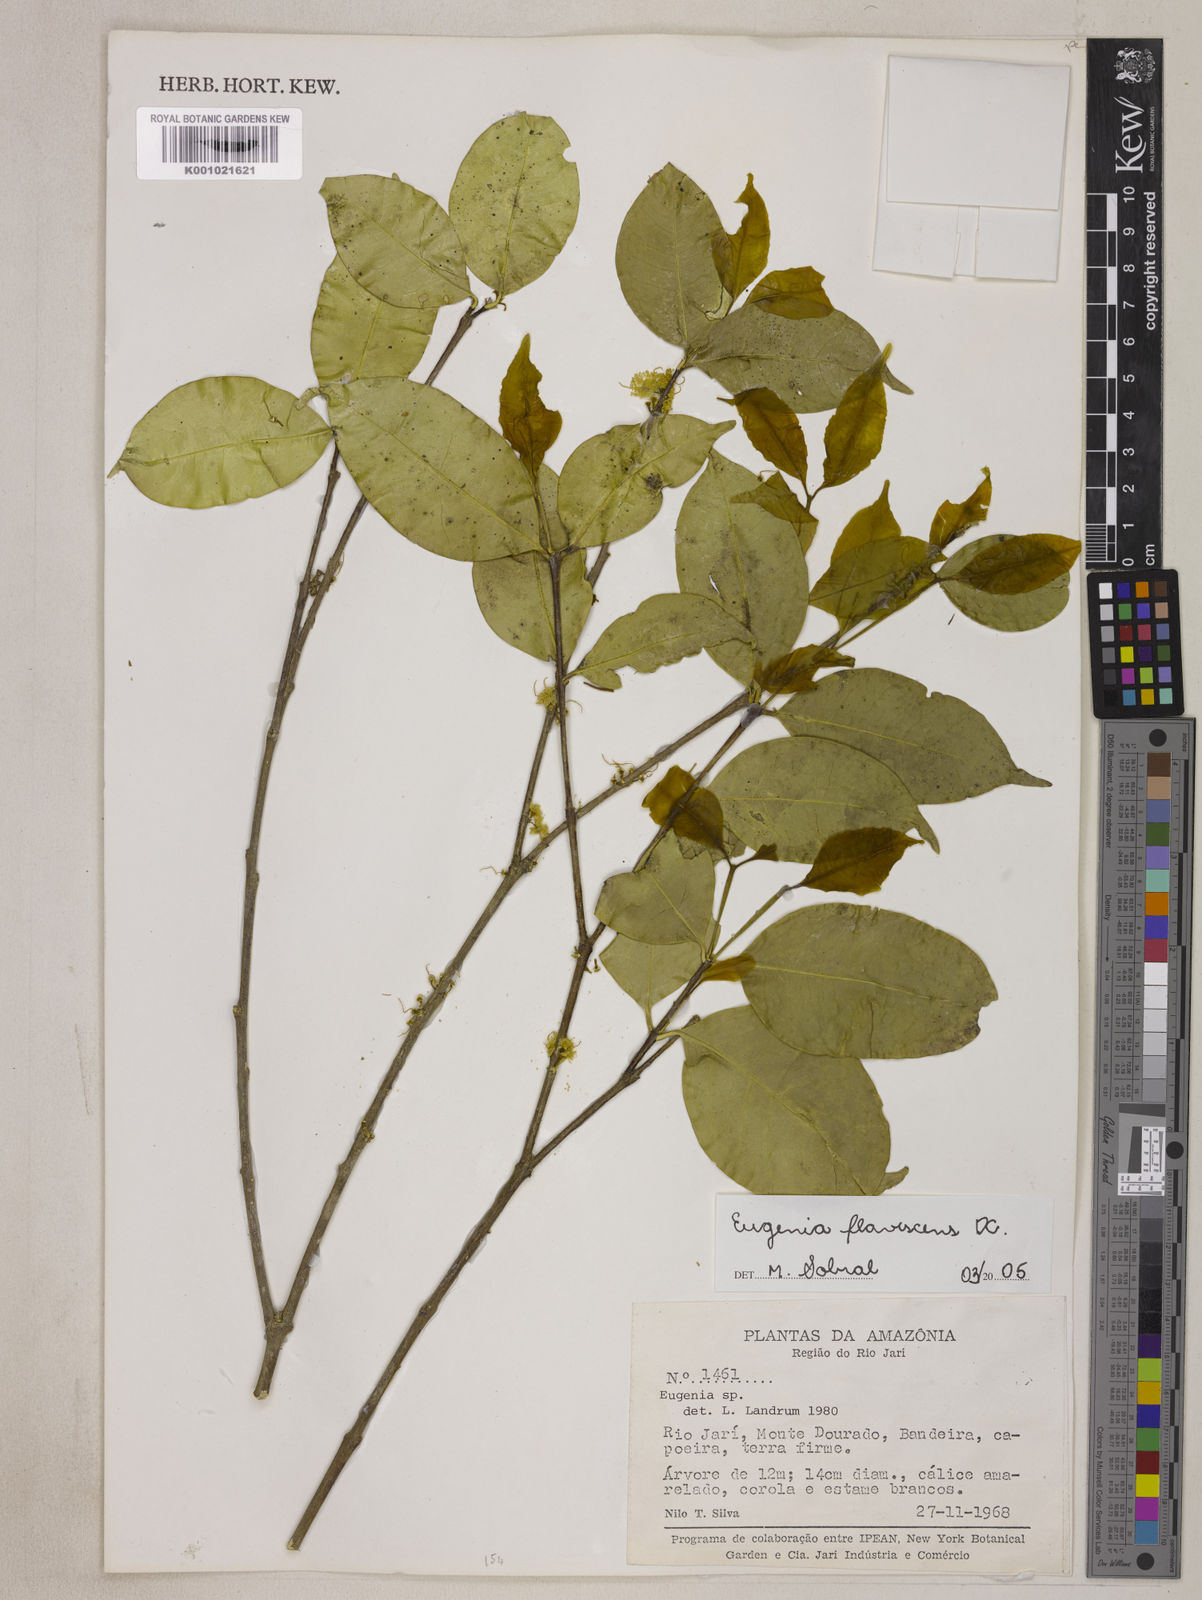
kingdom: Plantae
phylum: Tracheophyta
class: Magnoliopsida
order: Myrtales
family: Myrtaceae
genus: Eugenia
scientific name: Eugenia flavescens
